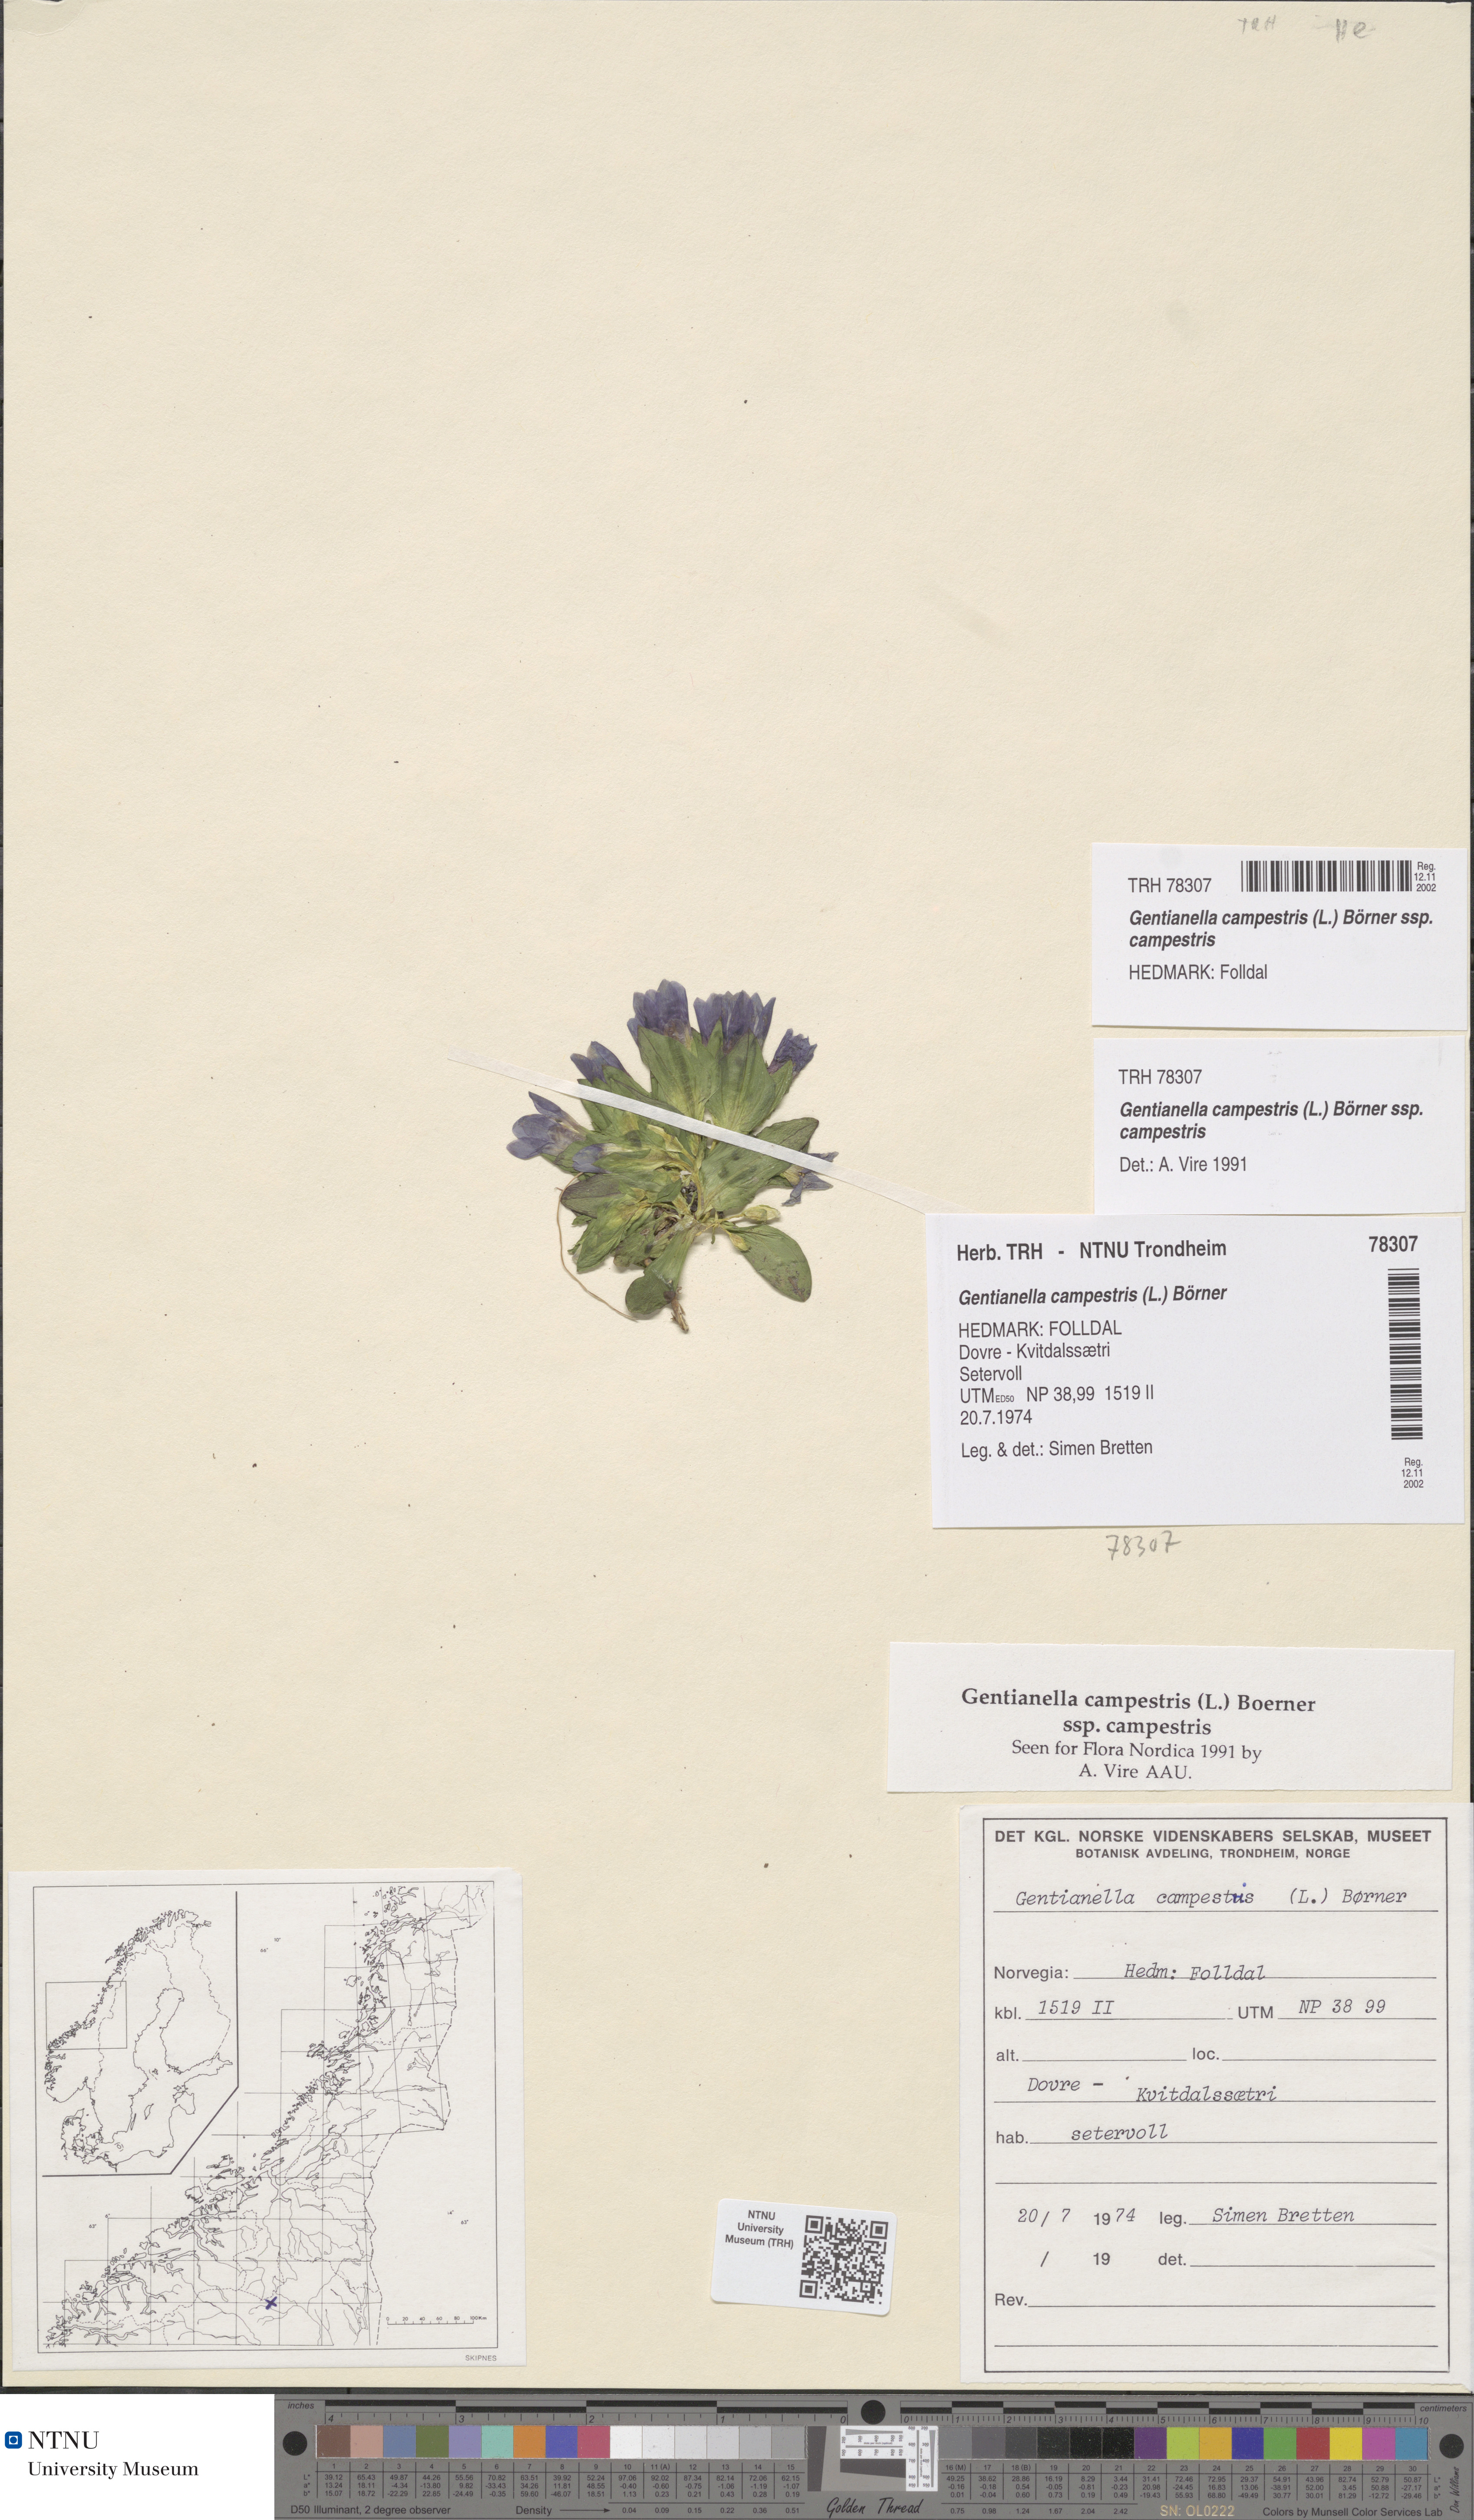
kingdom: Plantae
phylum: Tracheophyta
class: Magnoliopsida
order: Gentianales
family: Gentianaceae
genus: Gentianella
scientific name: Gentianella campestris
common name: Field gentian
